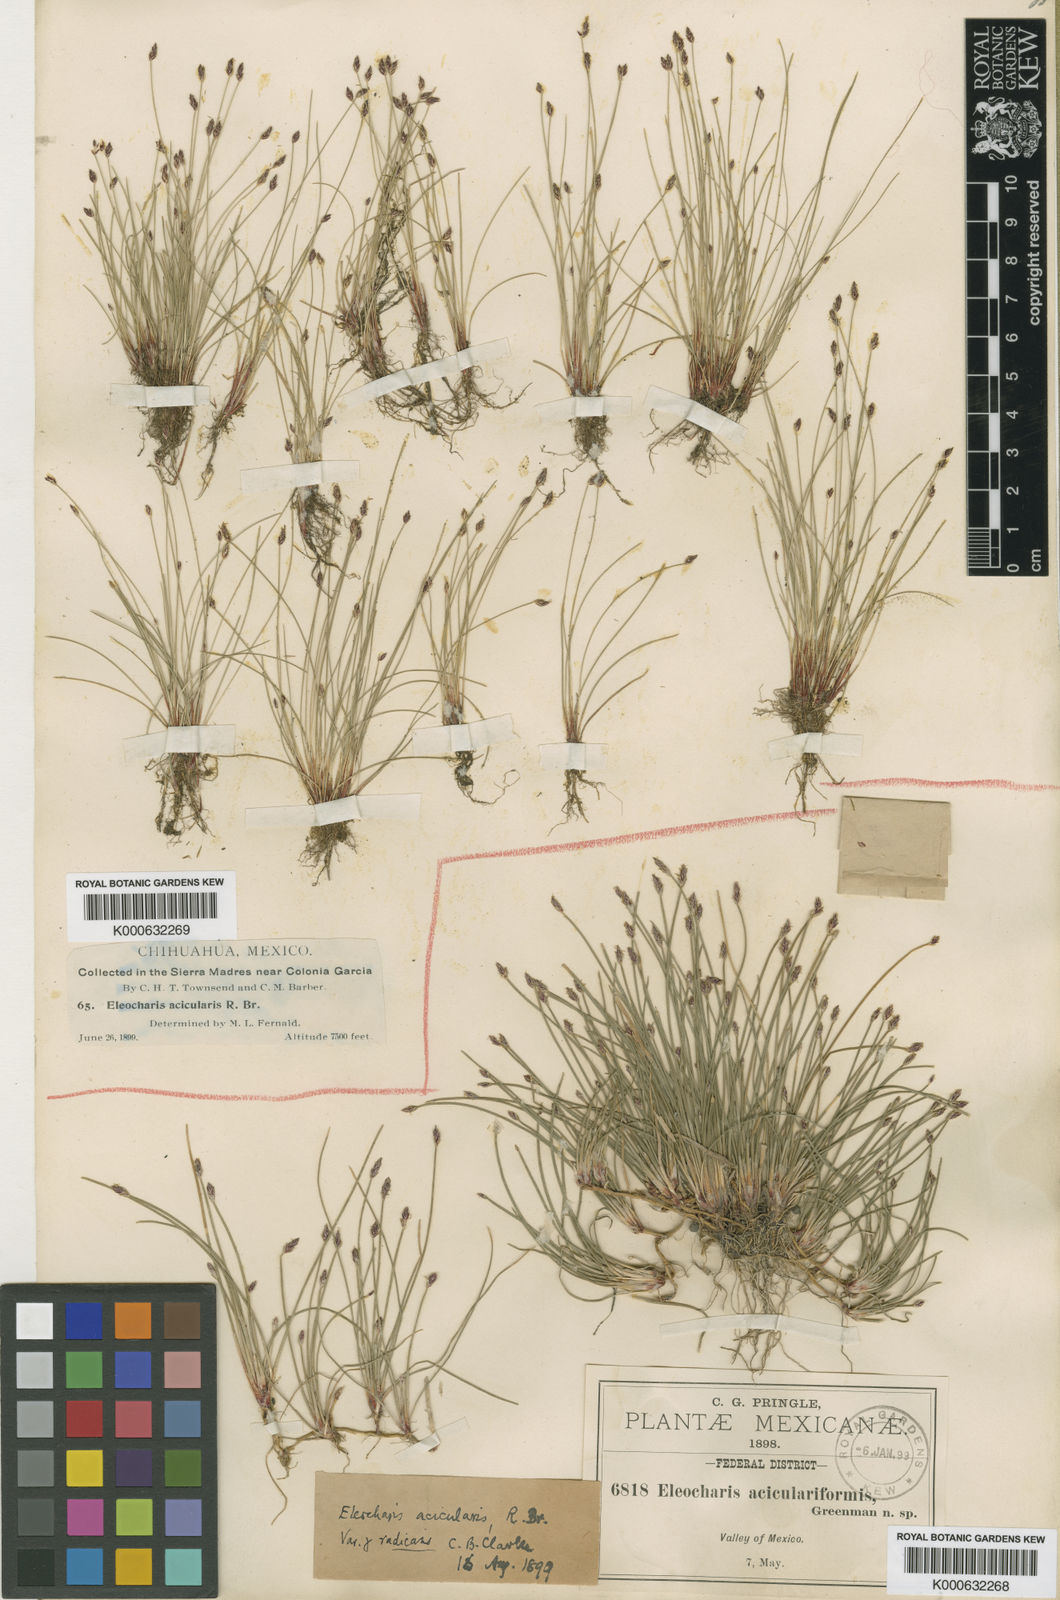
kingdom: Plantae
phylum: Tracheophyta
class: Liliopsida
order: Poales
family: Cyperaceae
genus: Eleocharis
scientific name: Eleocharis
